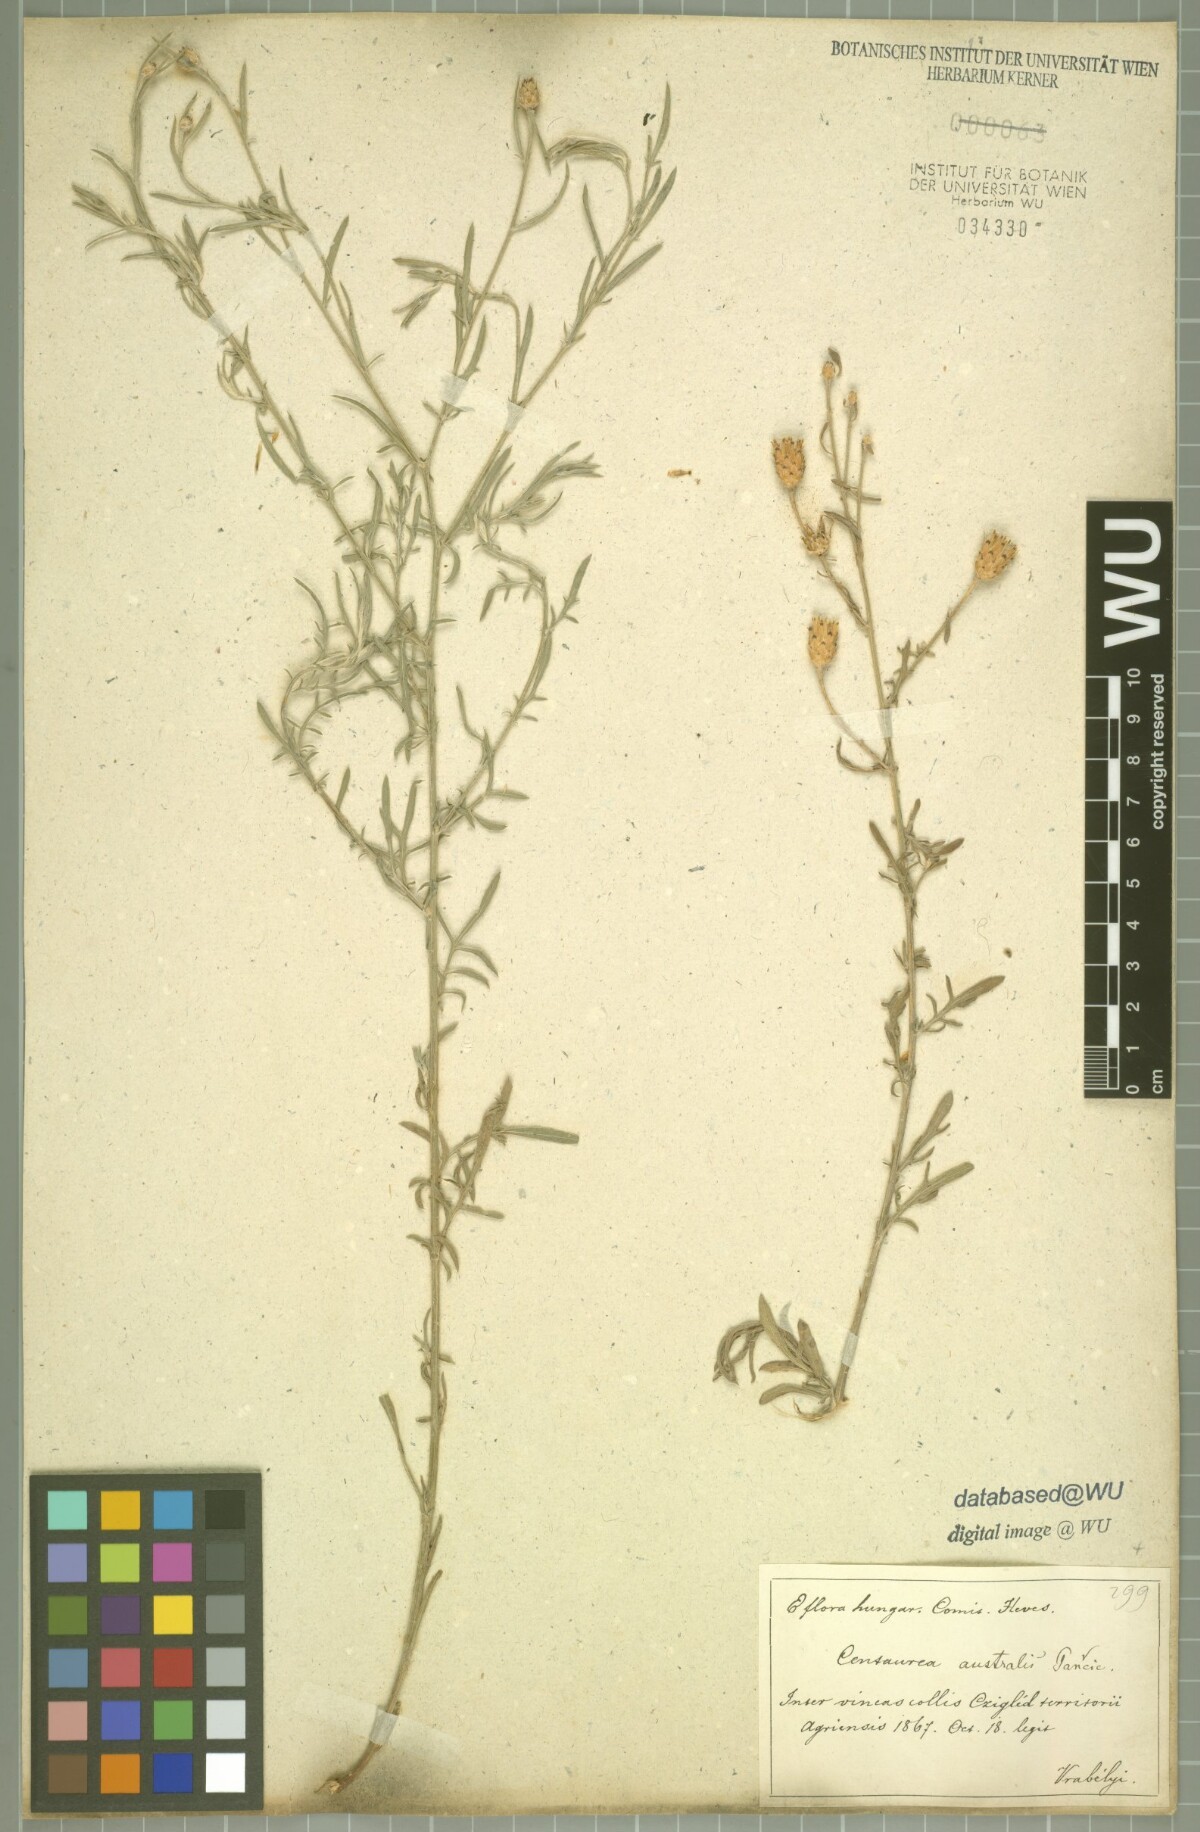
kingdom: Plantae
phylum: Tracheophyta
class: Magnoliopsida
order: Asterales
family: Asteraceae
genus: Centaurea
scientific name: Centaurea australis
